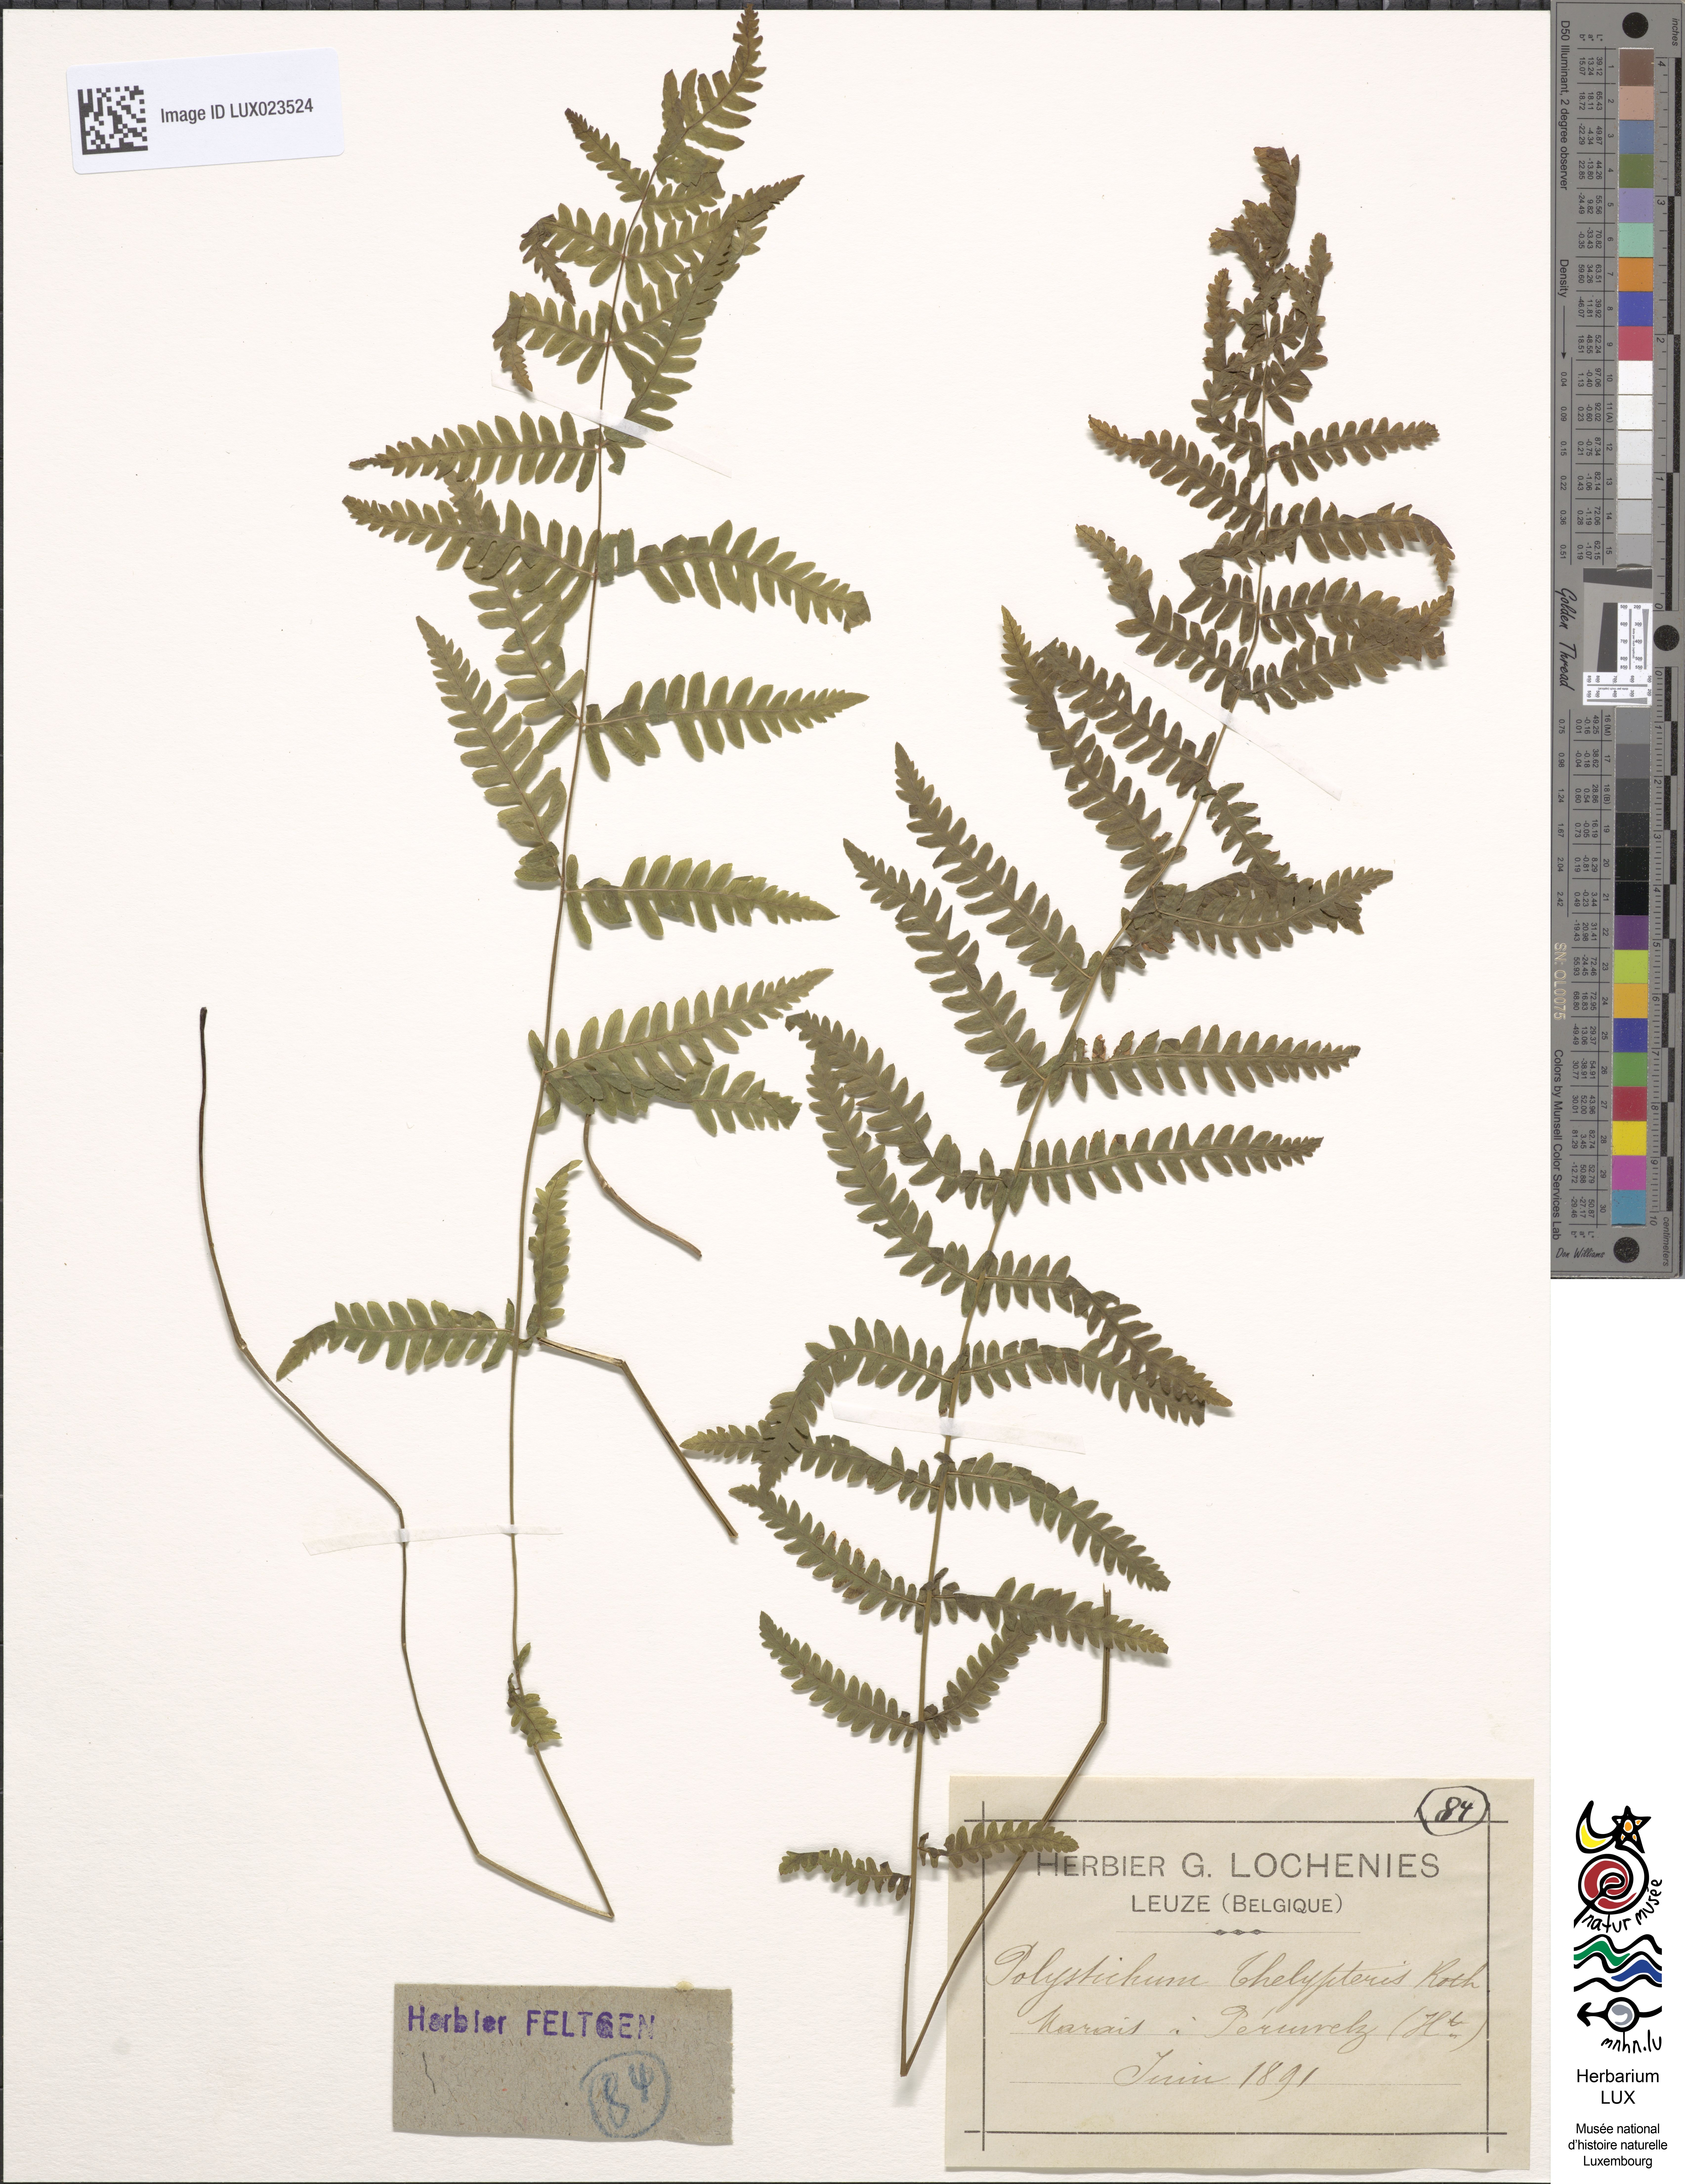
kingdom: Plantae
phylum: Tracheophyta
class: Polypodiopsida
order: Polypodiales
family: Thelypteridaceae
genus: Thelypteris
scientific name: Thelypteris palustris
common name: Marsh fern
